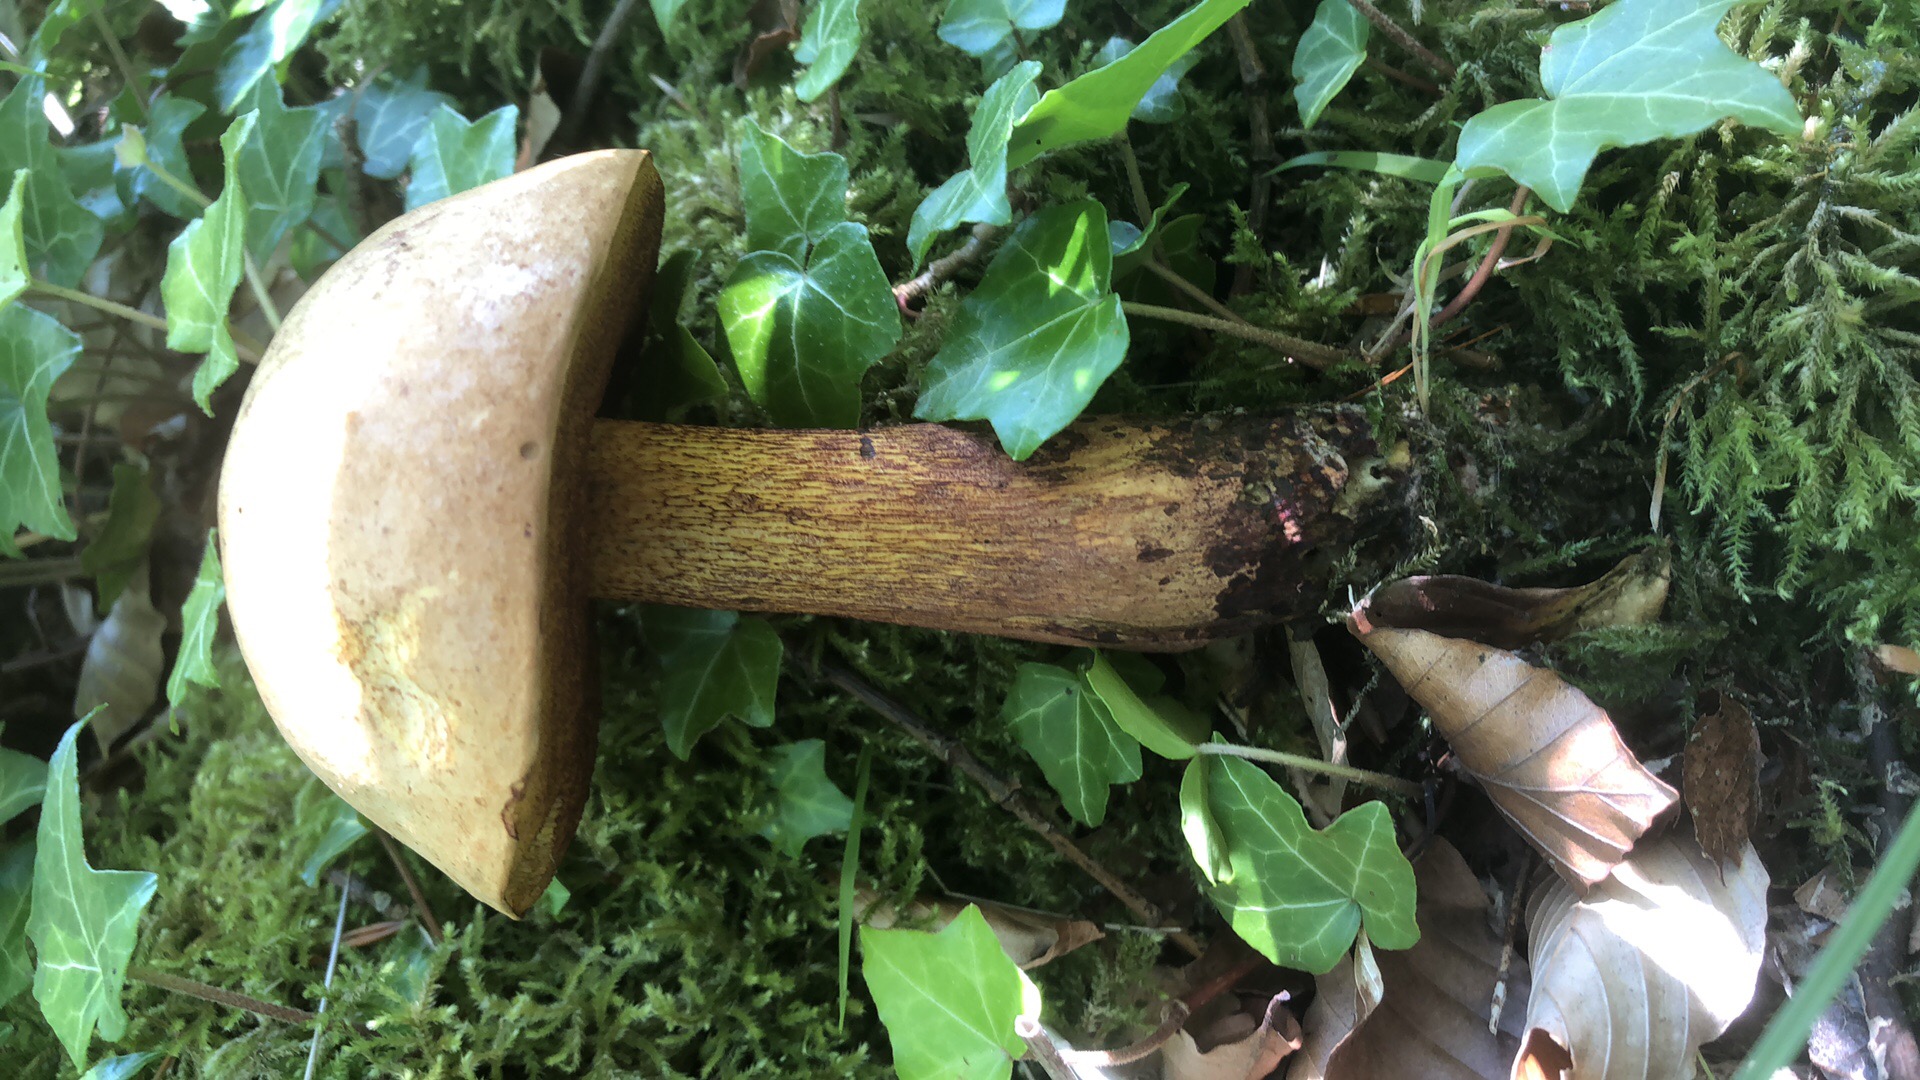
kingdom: Fungi
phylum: Basidiomycota
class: Agaricomycetes
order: Boletales
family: Boletaceae
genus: Suillellus
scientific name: Suillellus luridus
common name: netstokket indigorørhat
